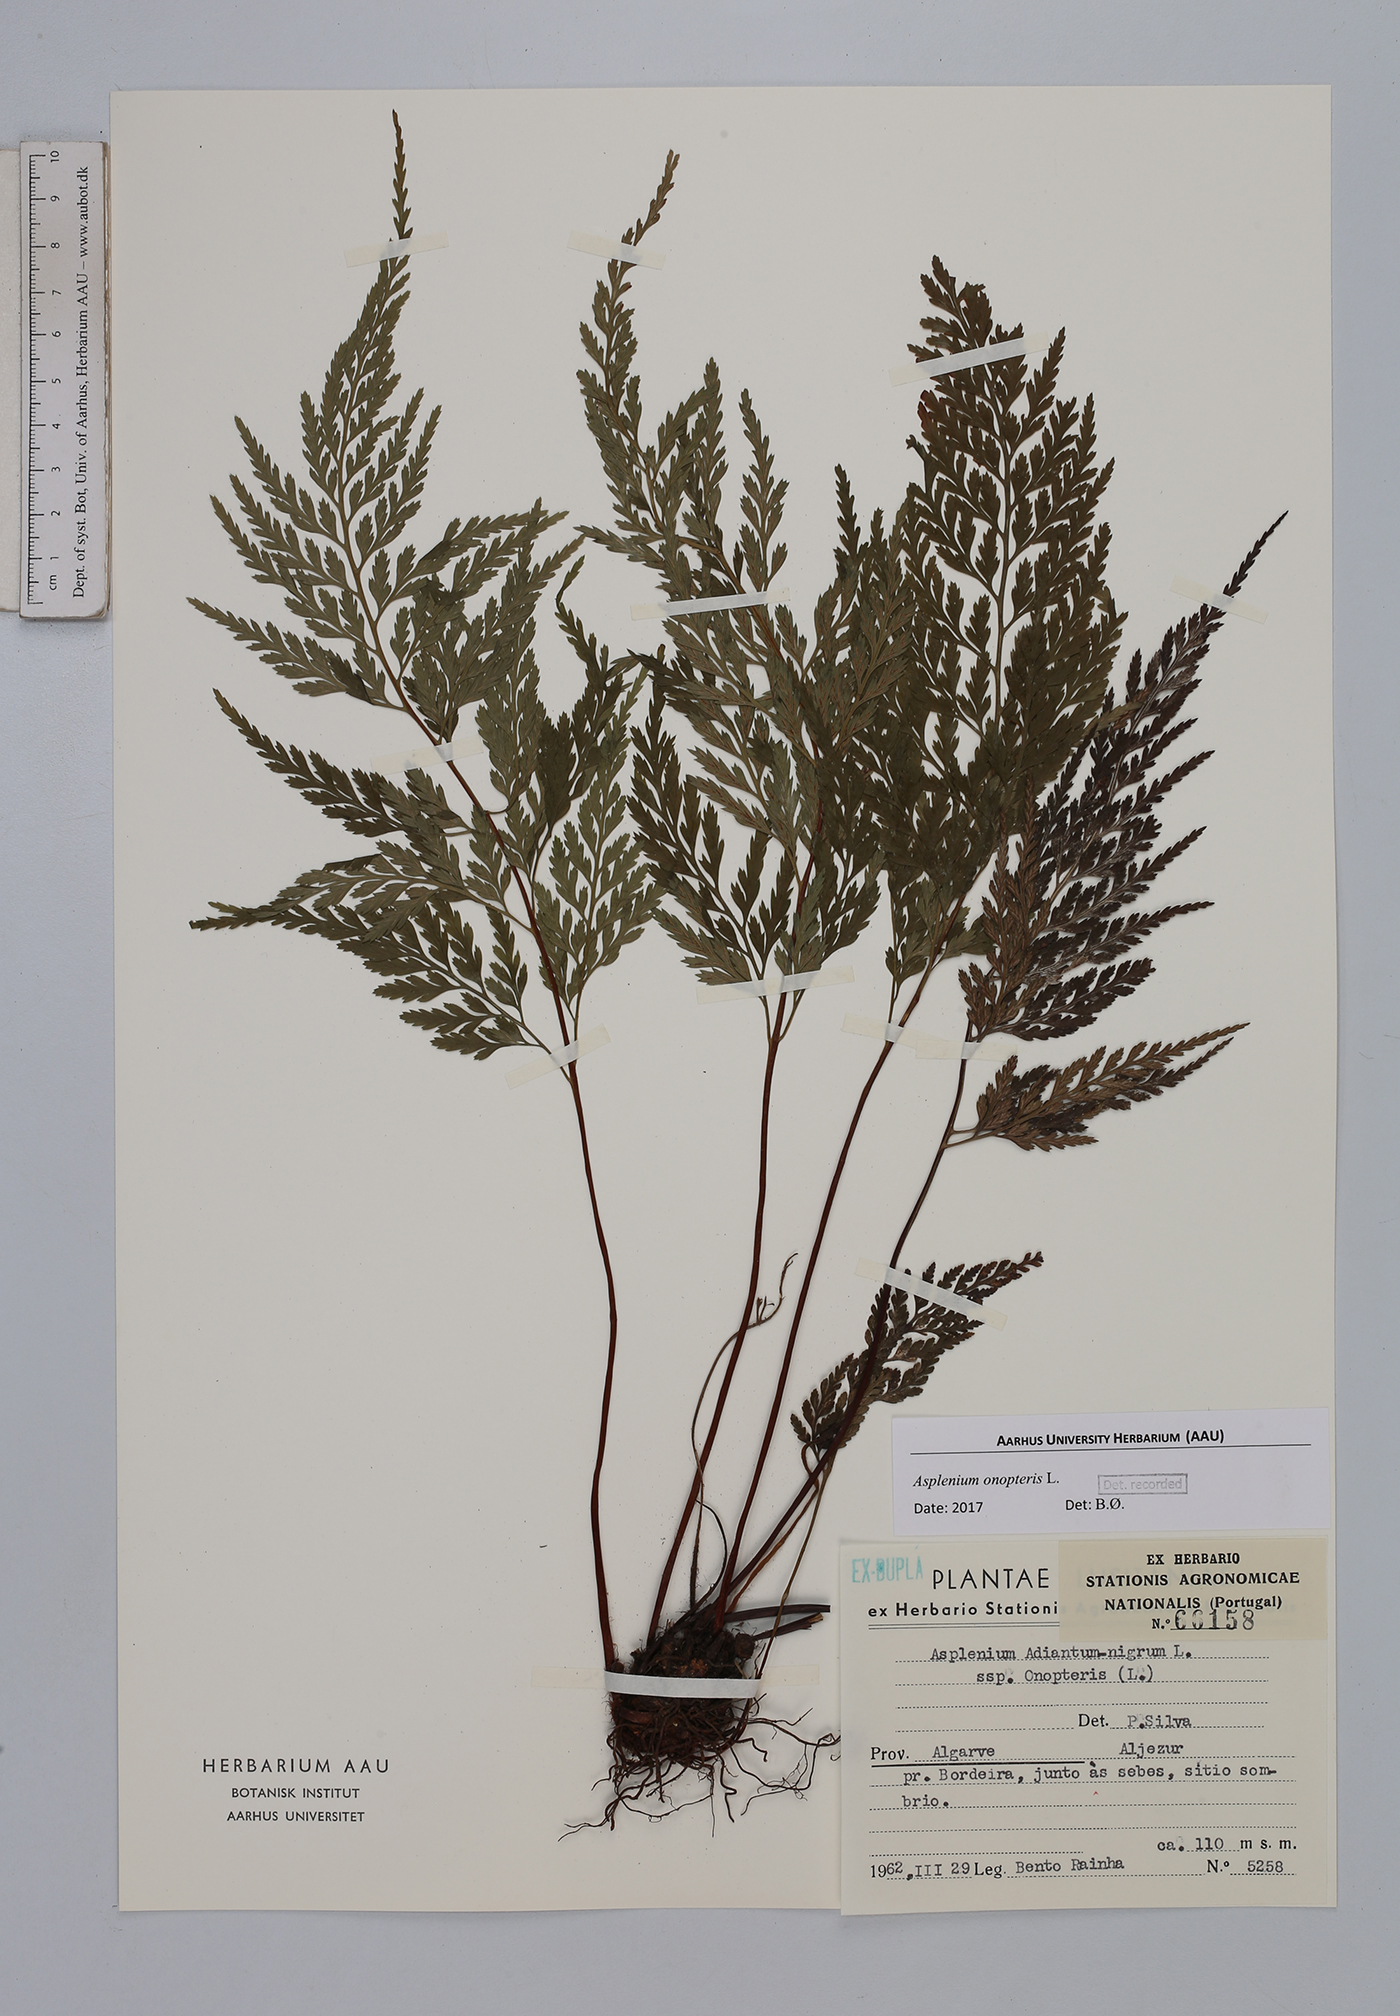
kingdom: Plantae
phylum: Tracheophyta
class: Polypodiopsida
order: Polypodiales
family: Aspleniaceae
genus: Asplenium
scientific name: Asplenium onopteris
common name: Irish spleenwort
